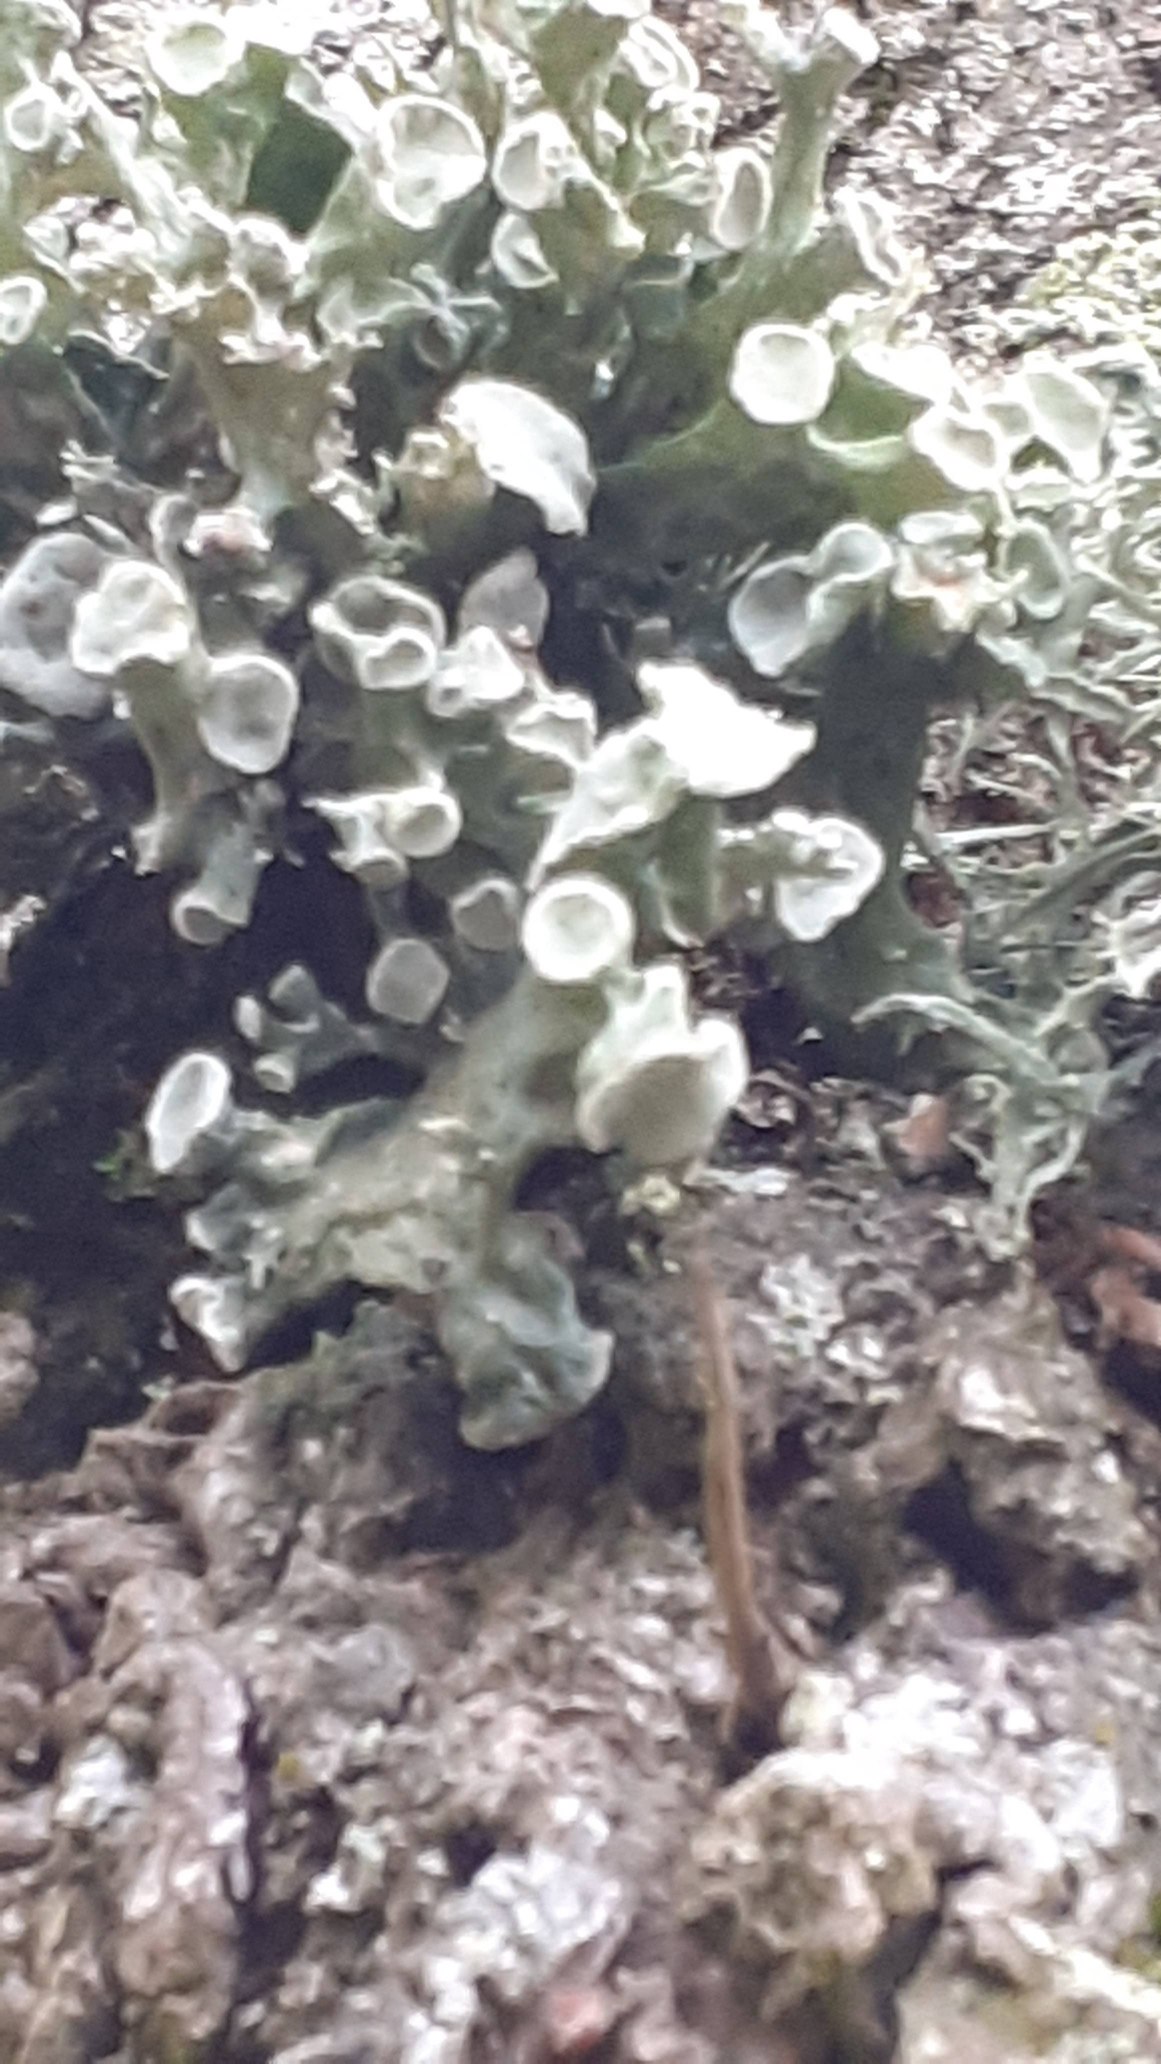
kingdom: Fungi
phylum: Ascomycota
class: Lecanoromycetes
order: Lecanorales
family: Ramalinaceae
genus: Ramalina
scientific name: Ramalina fastigiata
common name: Tue-grenlav
